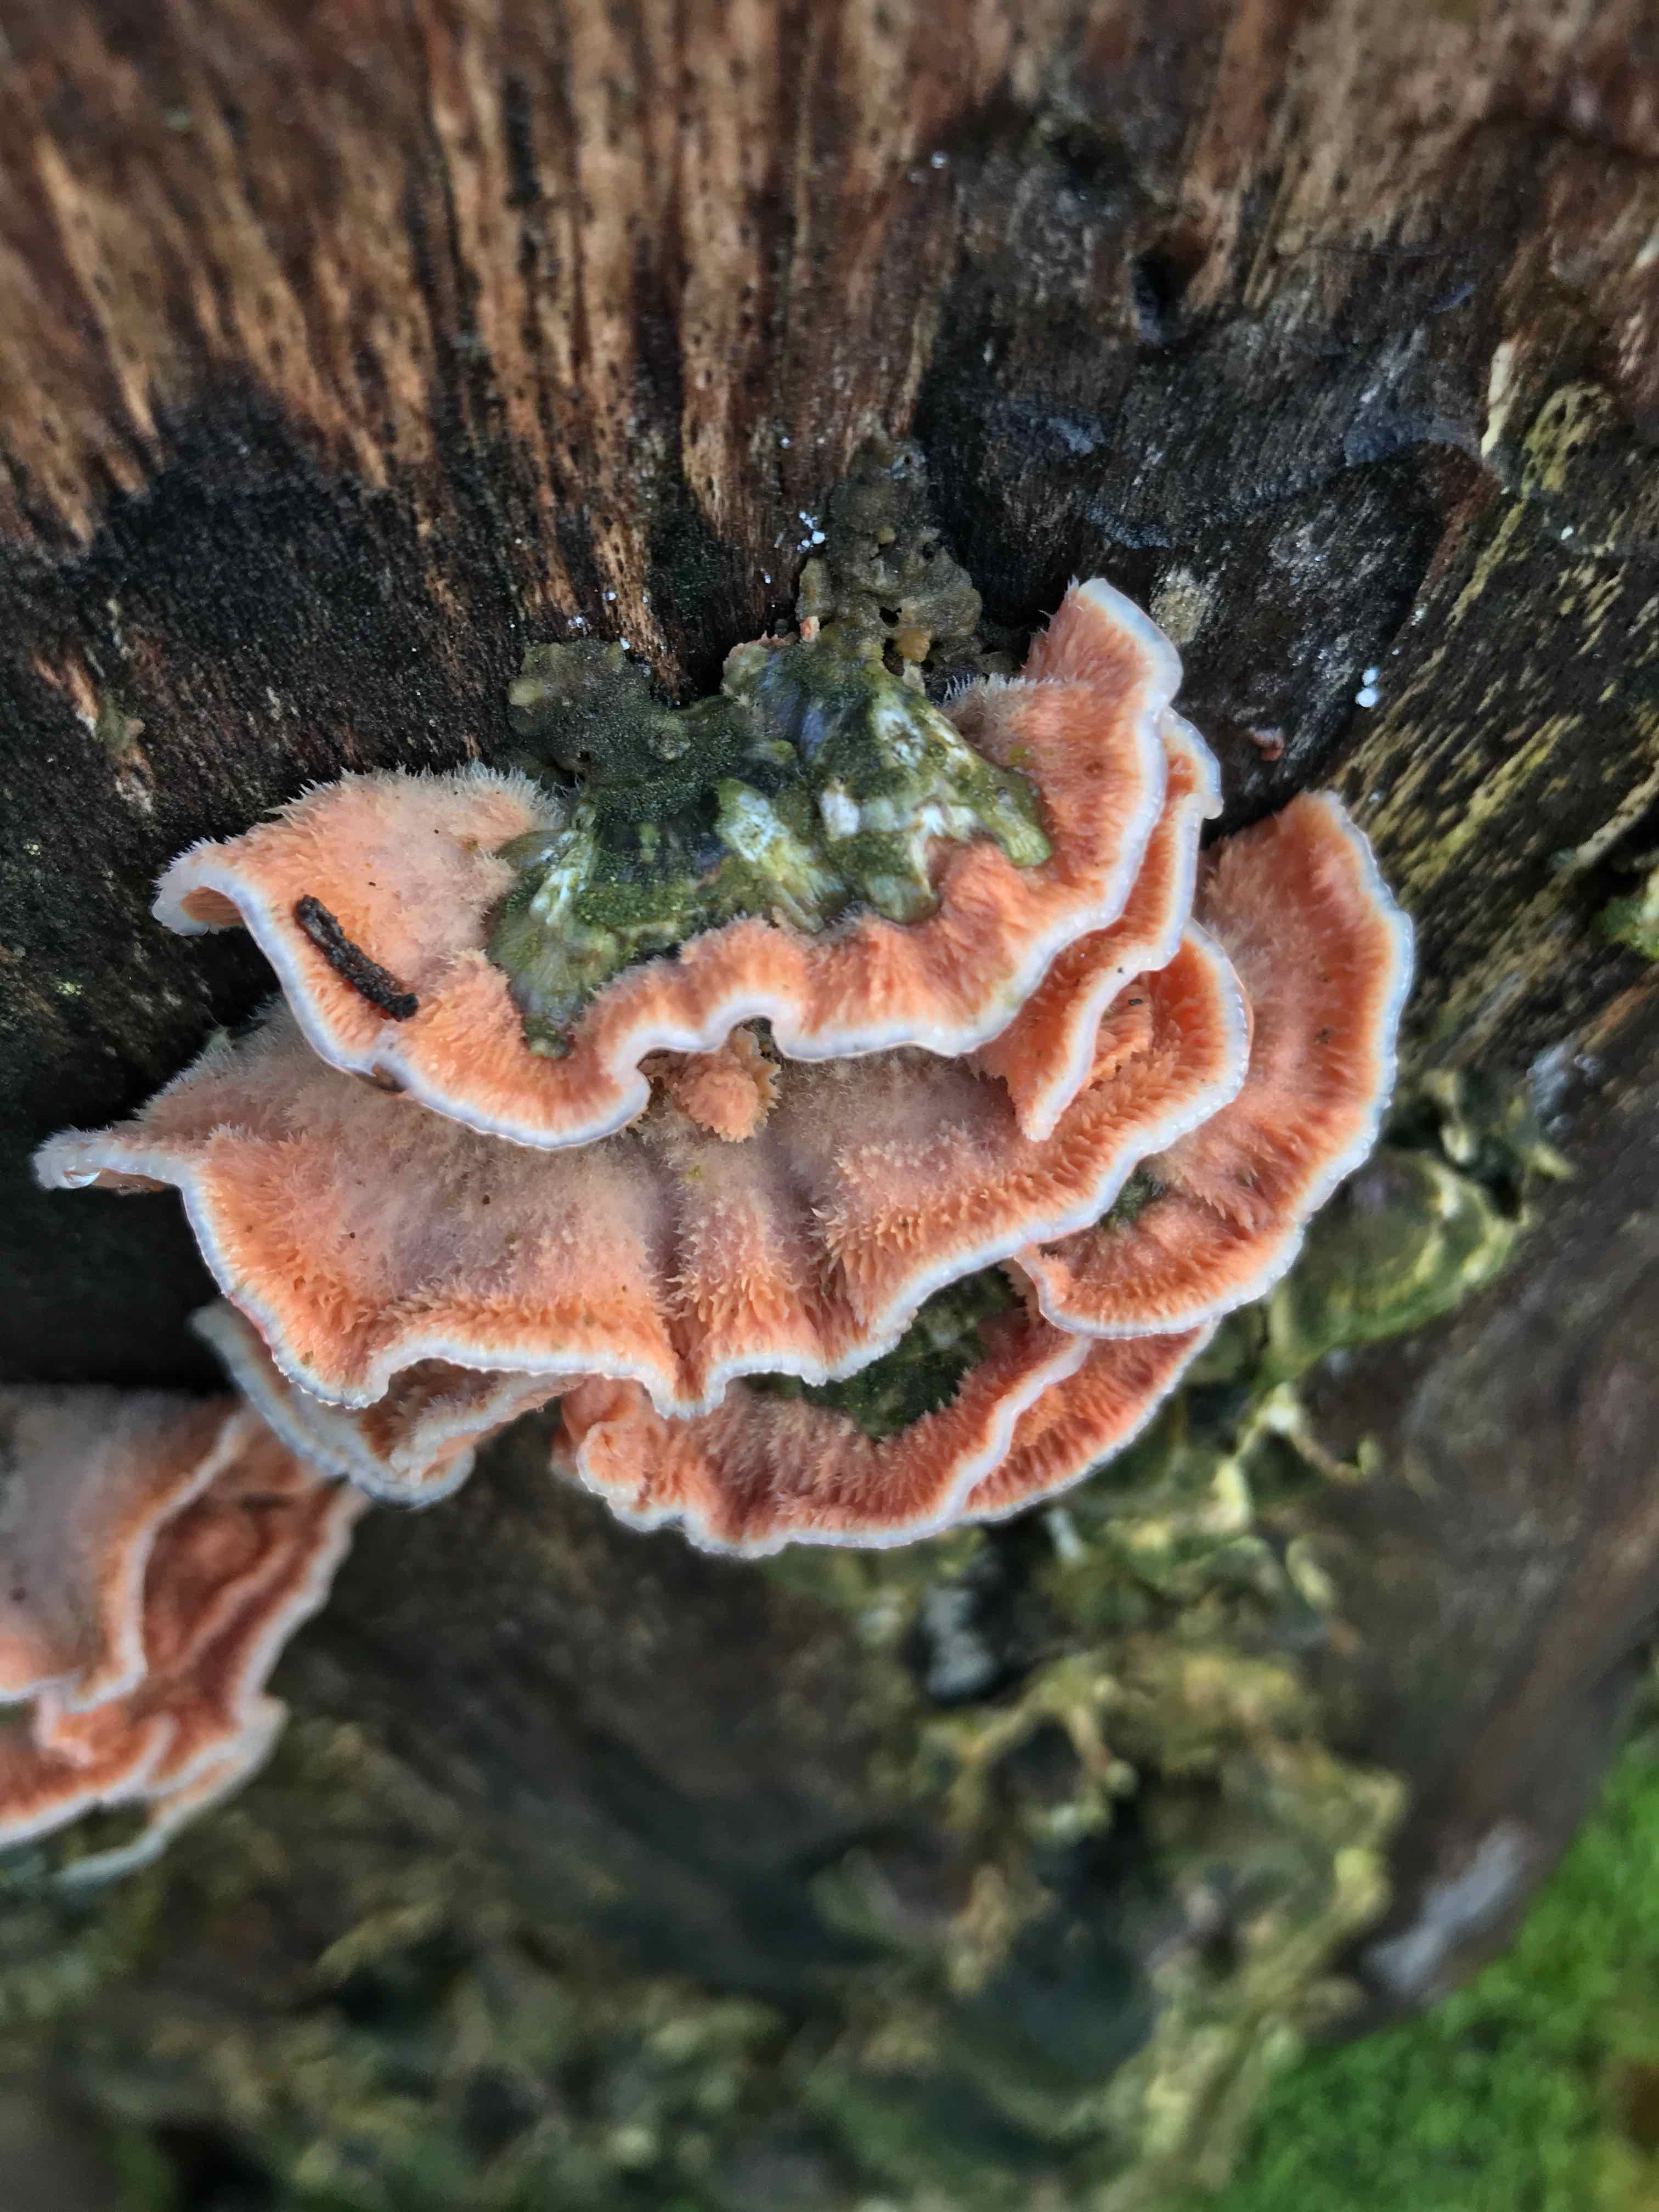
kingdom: Fungi
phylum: Basidiomycota
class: Agaricomycetes
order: Polyporales
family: Meruliaceae
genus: Phlebia
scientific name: Phlebia tremellosa
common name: bævrende åresvamp
